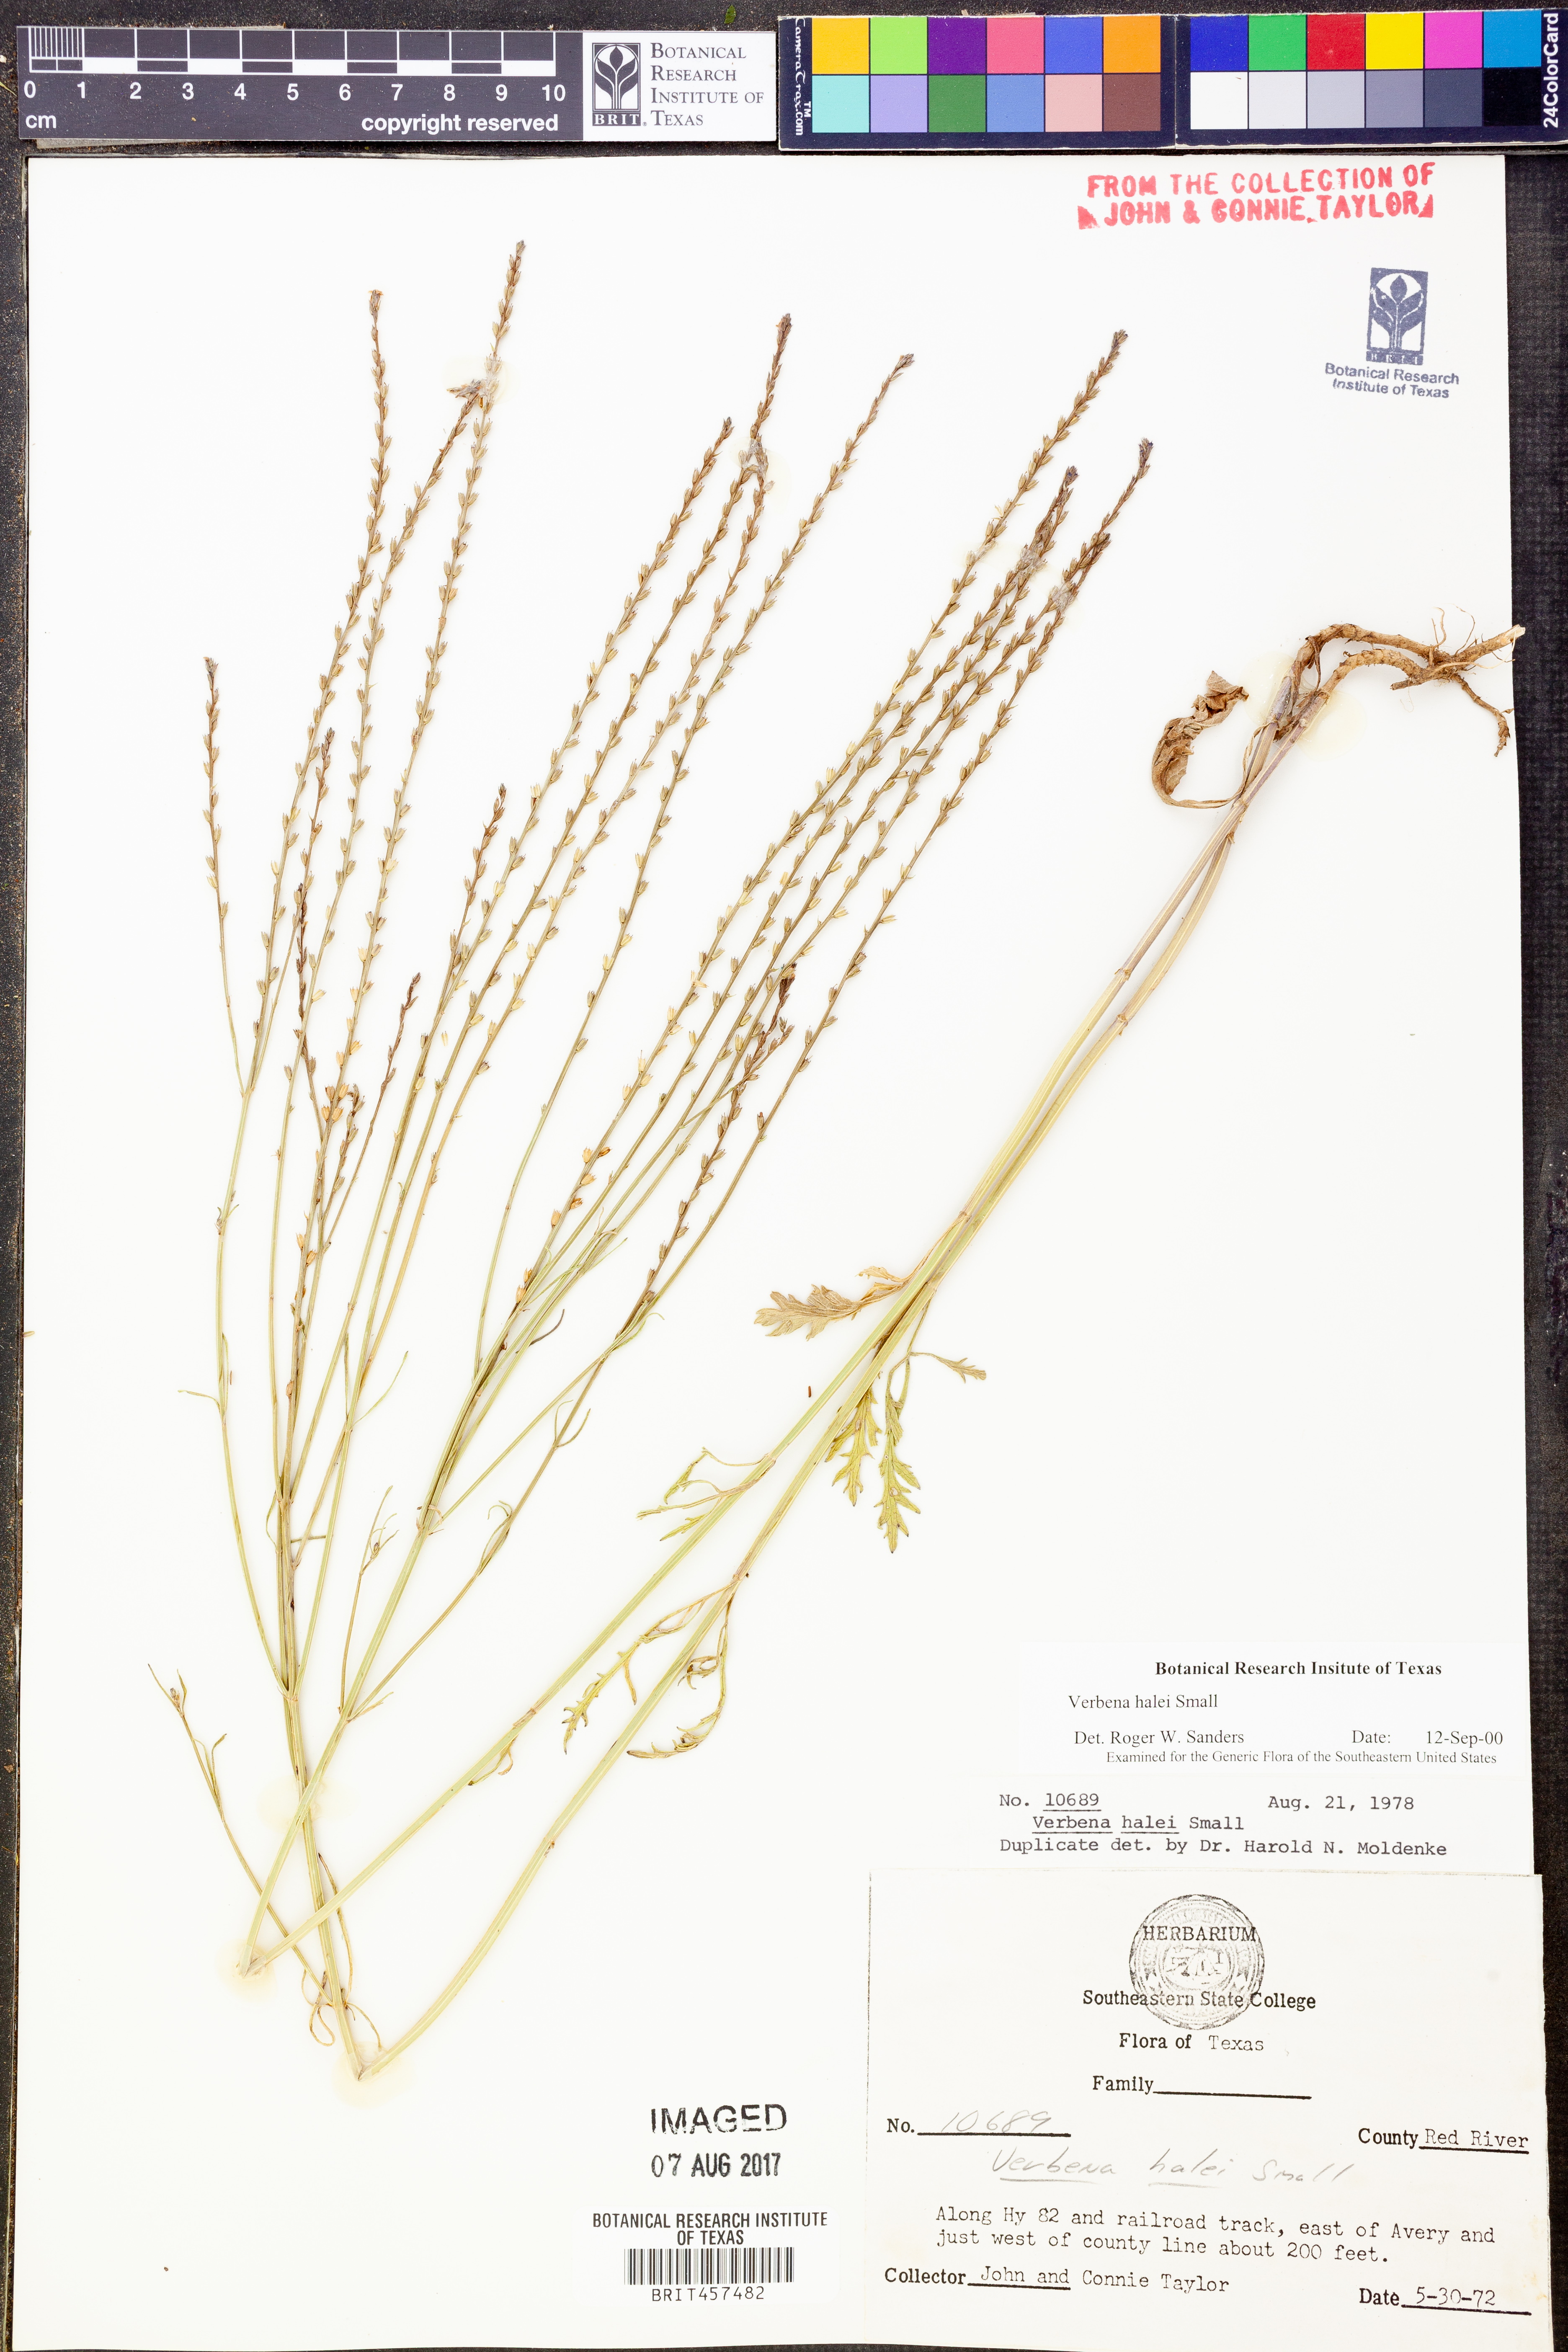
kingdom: Plantae
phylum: Tracheophyta
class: Magnoliopsida
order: Lamiales
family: Verbenaceae
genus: Verbena
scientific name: Verbena halei
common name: Texas vervain
